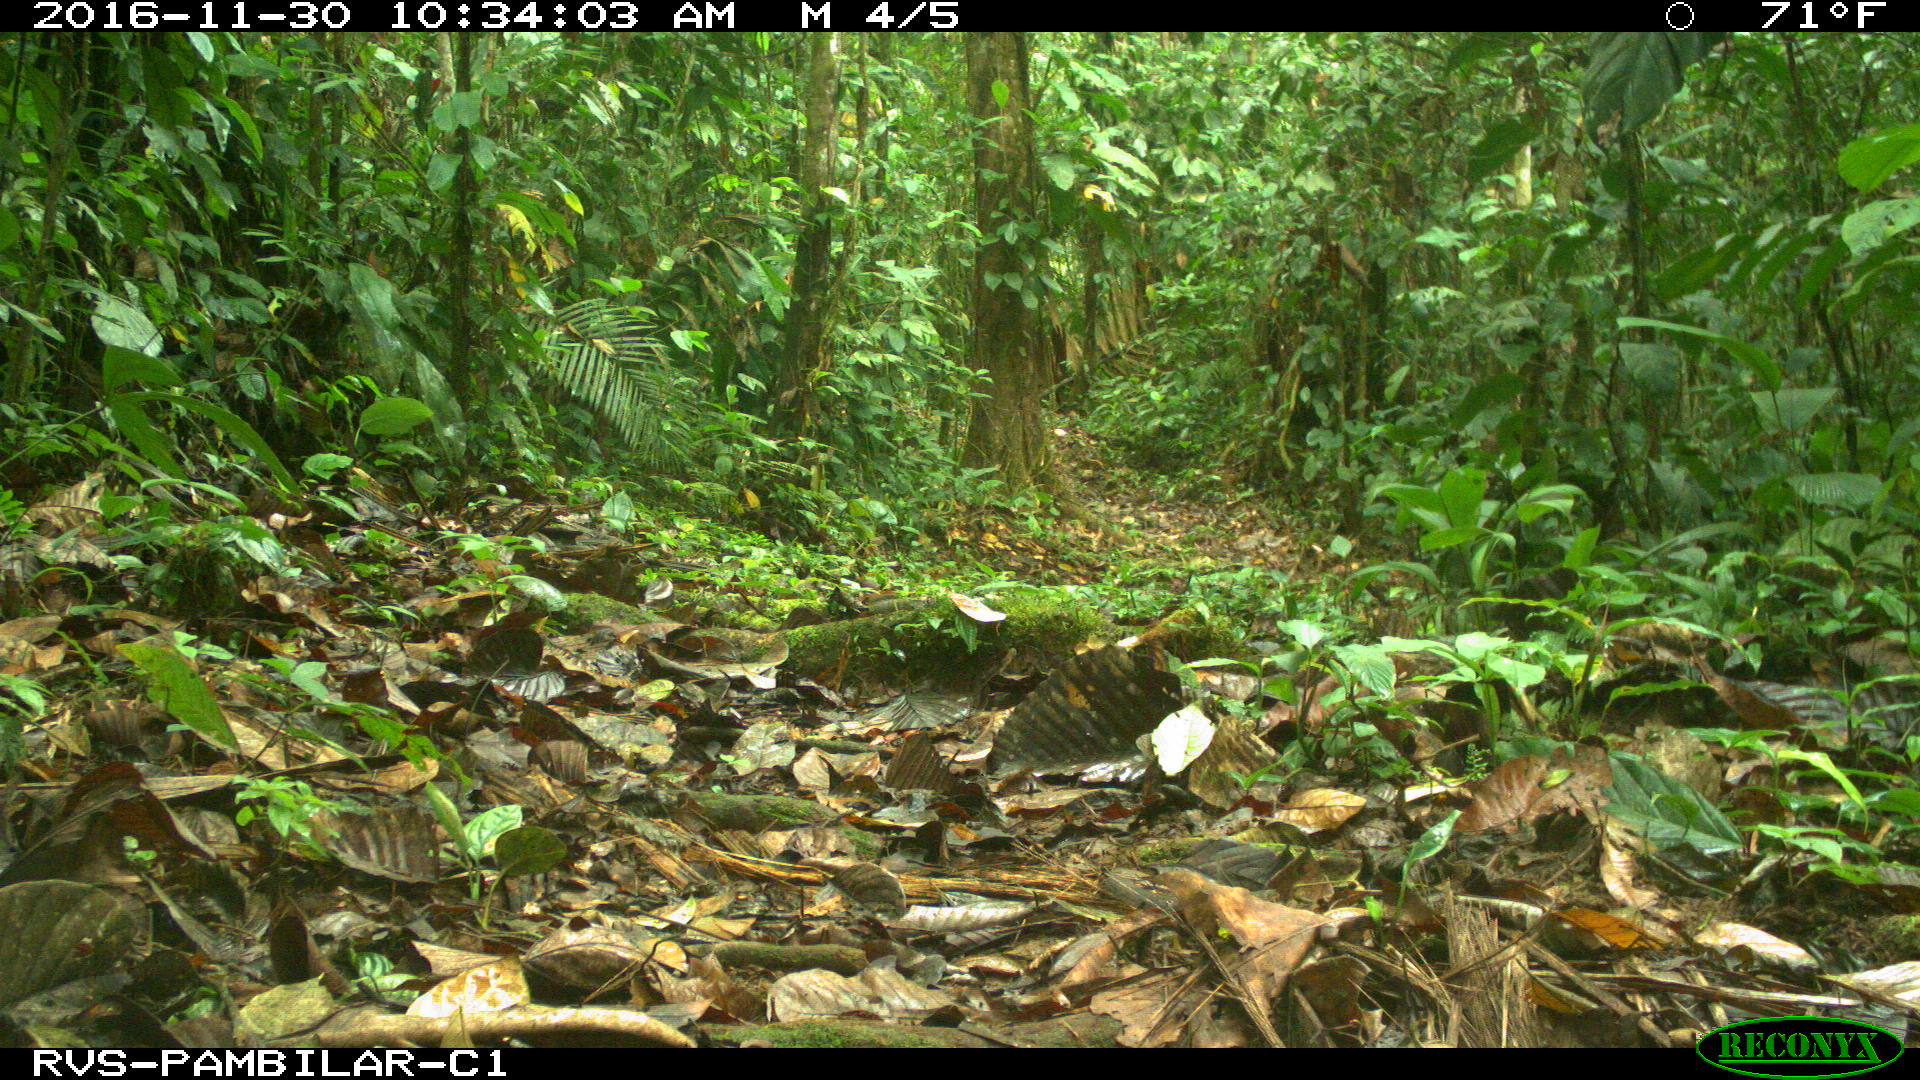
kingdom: Animalia
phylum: Chordata
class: Mammalia
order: Rodentia
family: Dasyproctidae
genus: Dasyprocta
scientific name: Dasyprocta punctata
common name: Central american agouti
